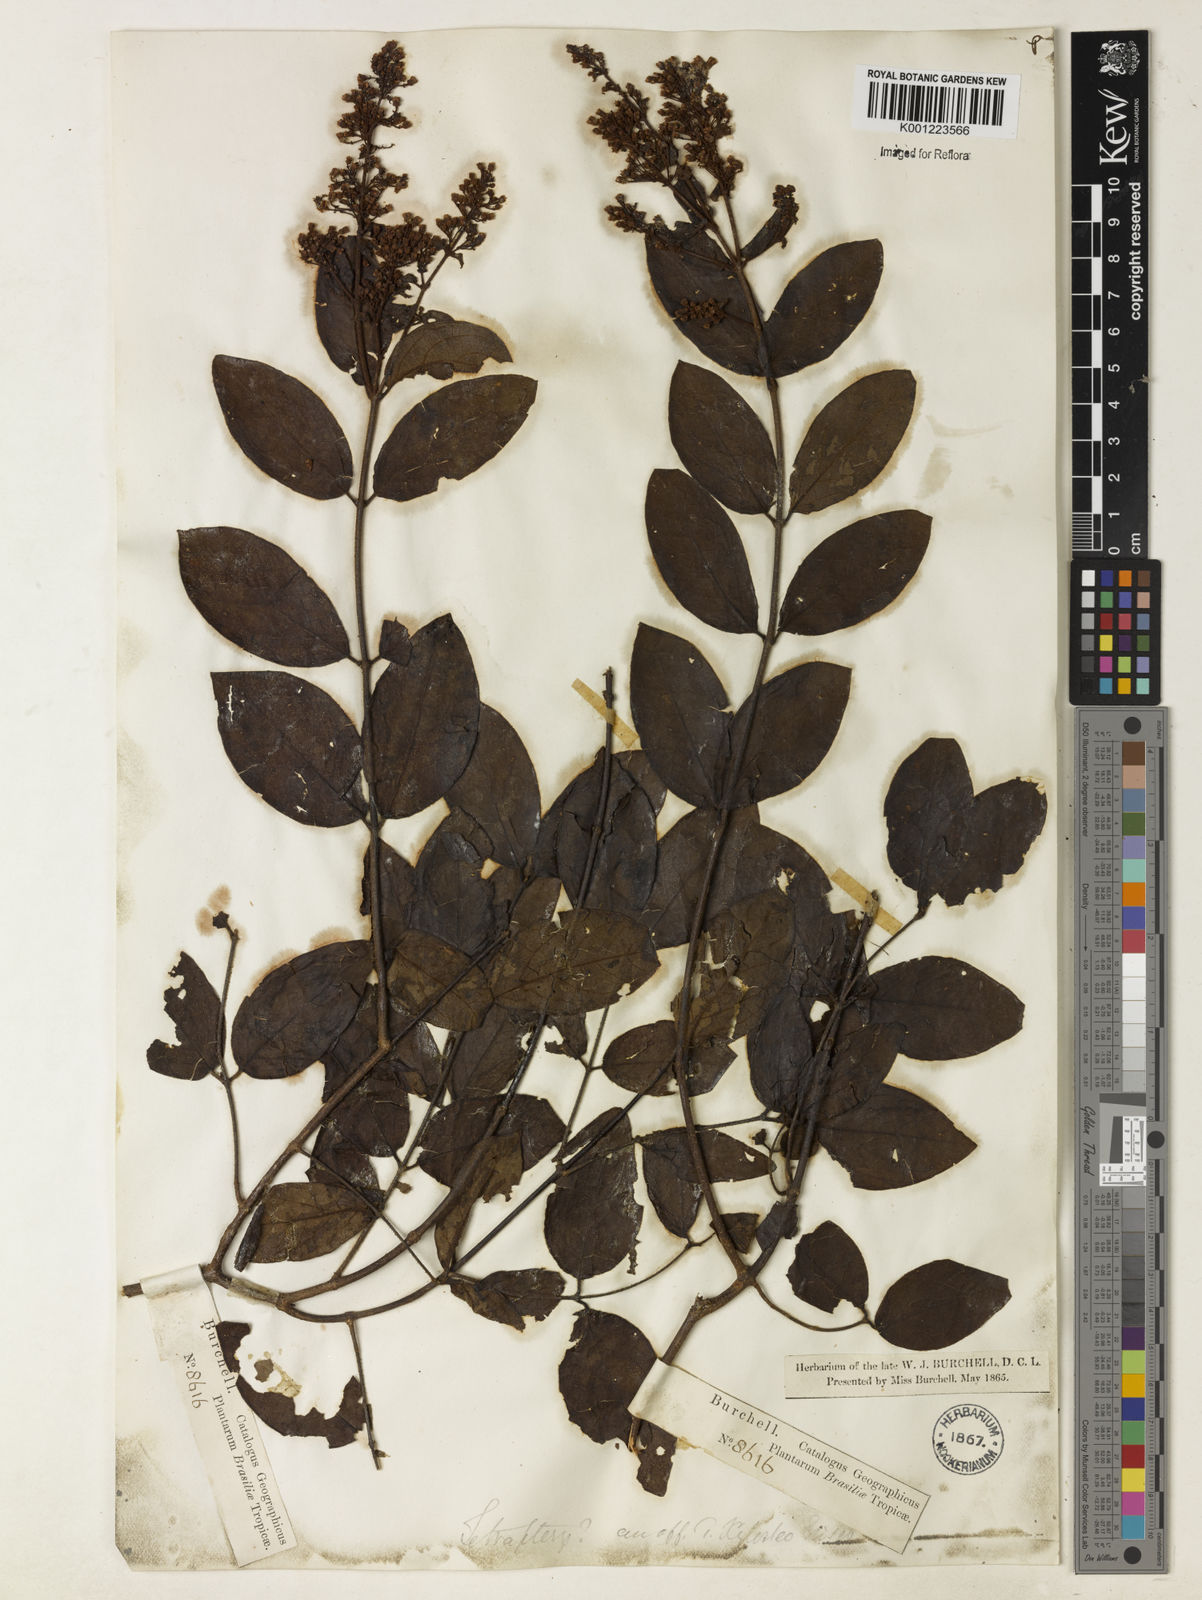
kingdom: Plantae
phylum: Tracheophyta
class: Magnoliopsida
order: Malpighiales
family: Malpighiaceae
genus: Heteropterys
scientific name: Heteropterys trichanthera
